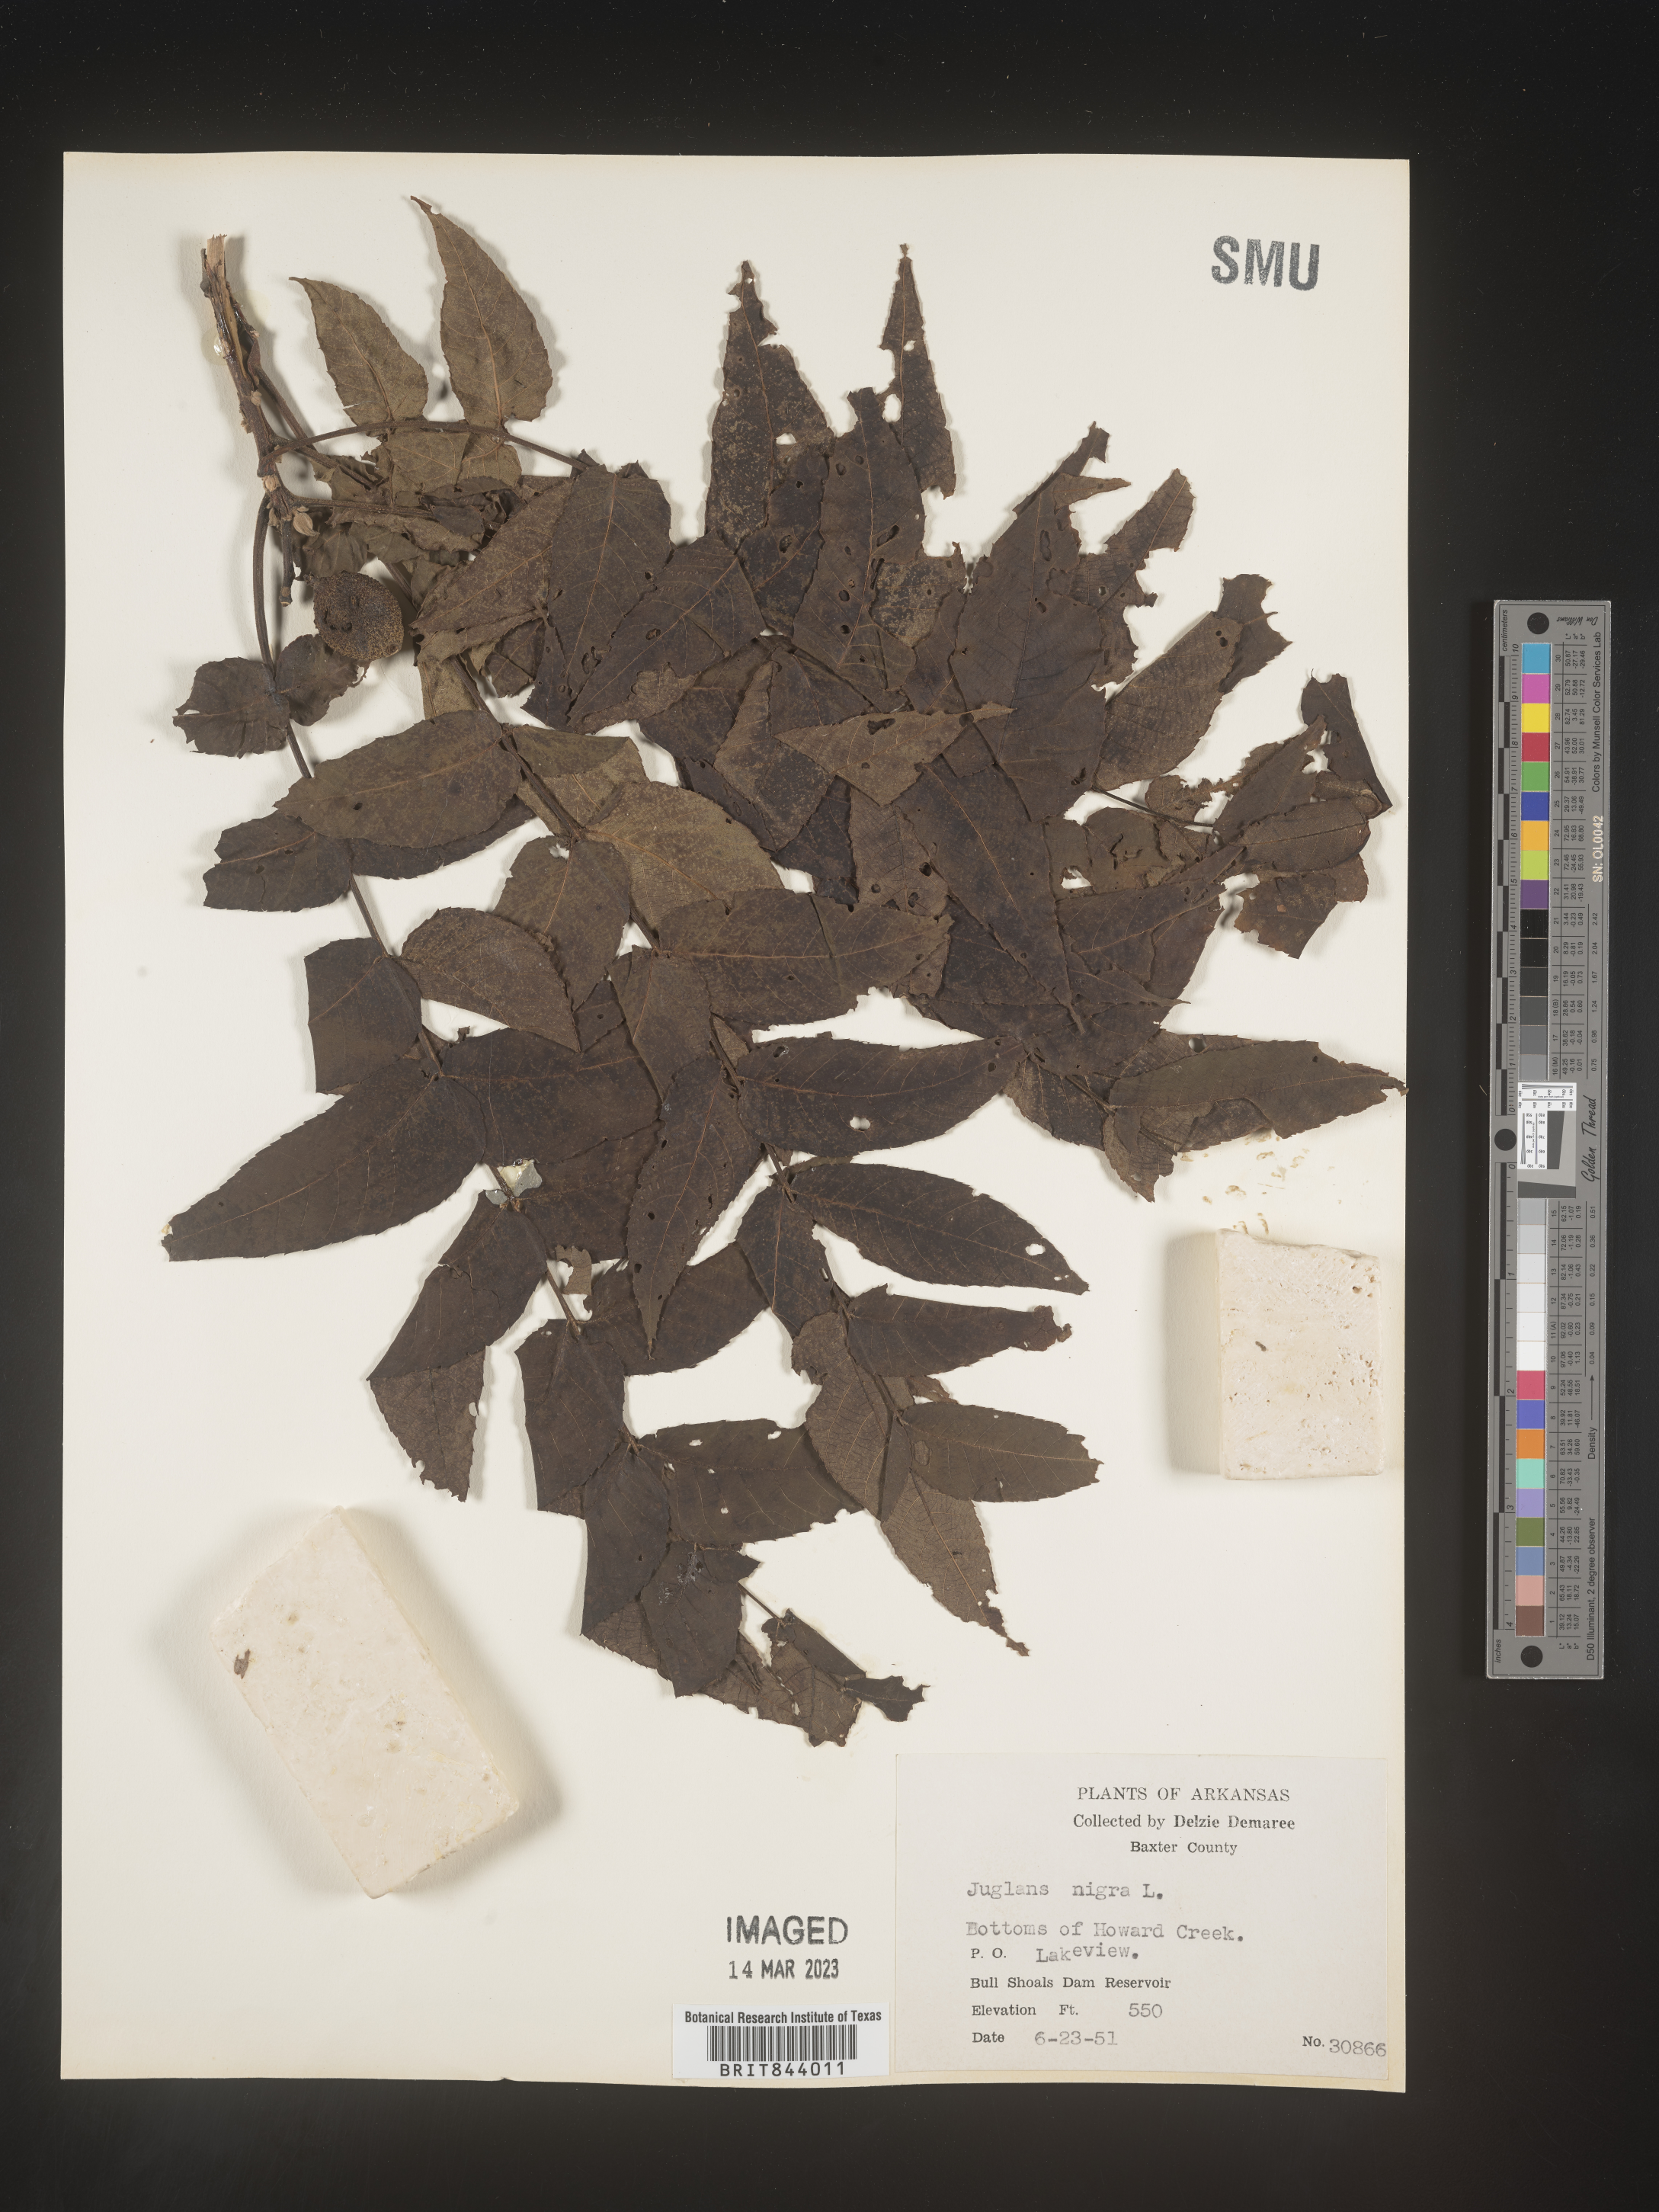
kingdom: Plantae
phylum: Tracheophyta
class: Magnoliopsida
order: Fagales
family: Juglandaceae
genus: Juglans
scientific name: Juglans nigra
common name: Black walnut
